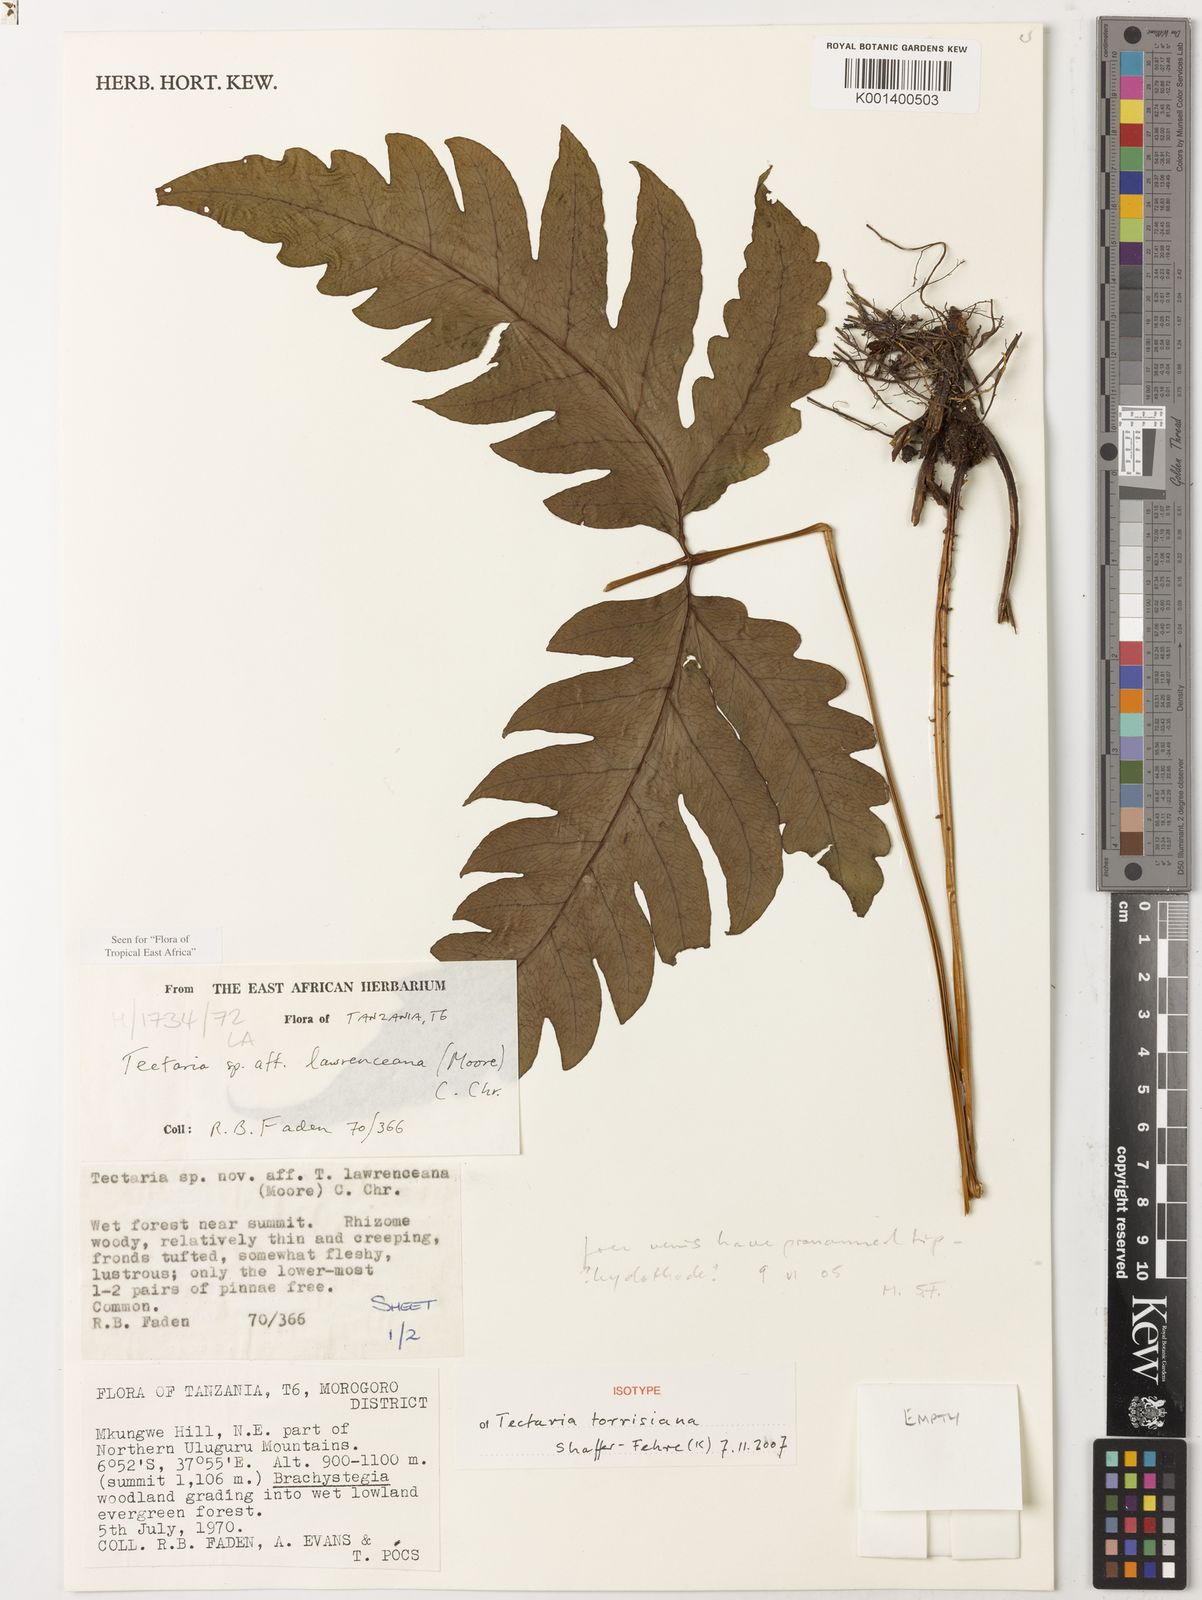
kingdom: Plantae
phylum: Tracheophyta
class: Polypodiopsida
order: Polypodiales
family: Tectariaceae
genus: Tectaria
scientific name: Tectaria torrisiana
